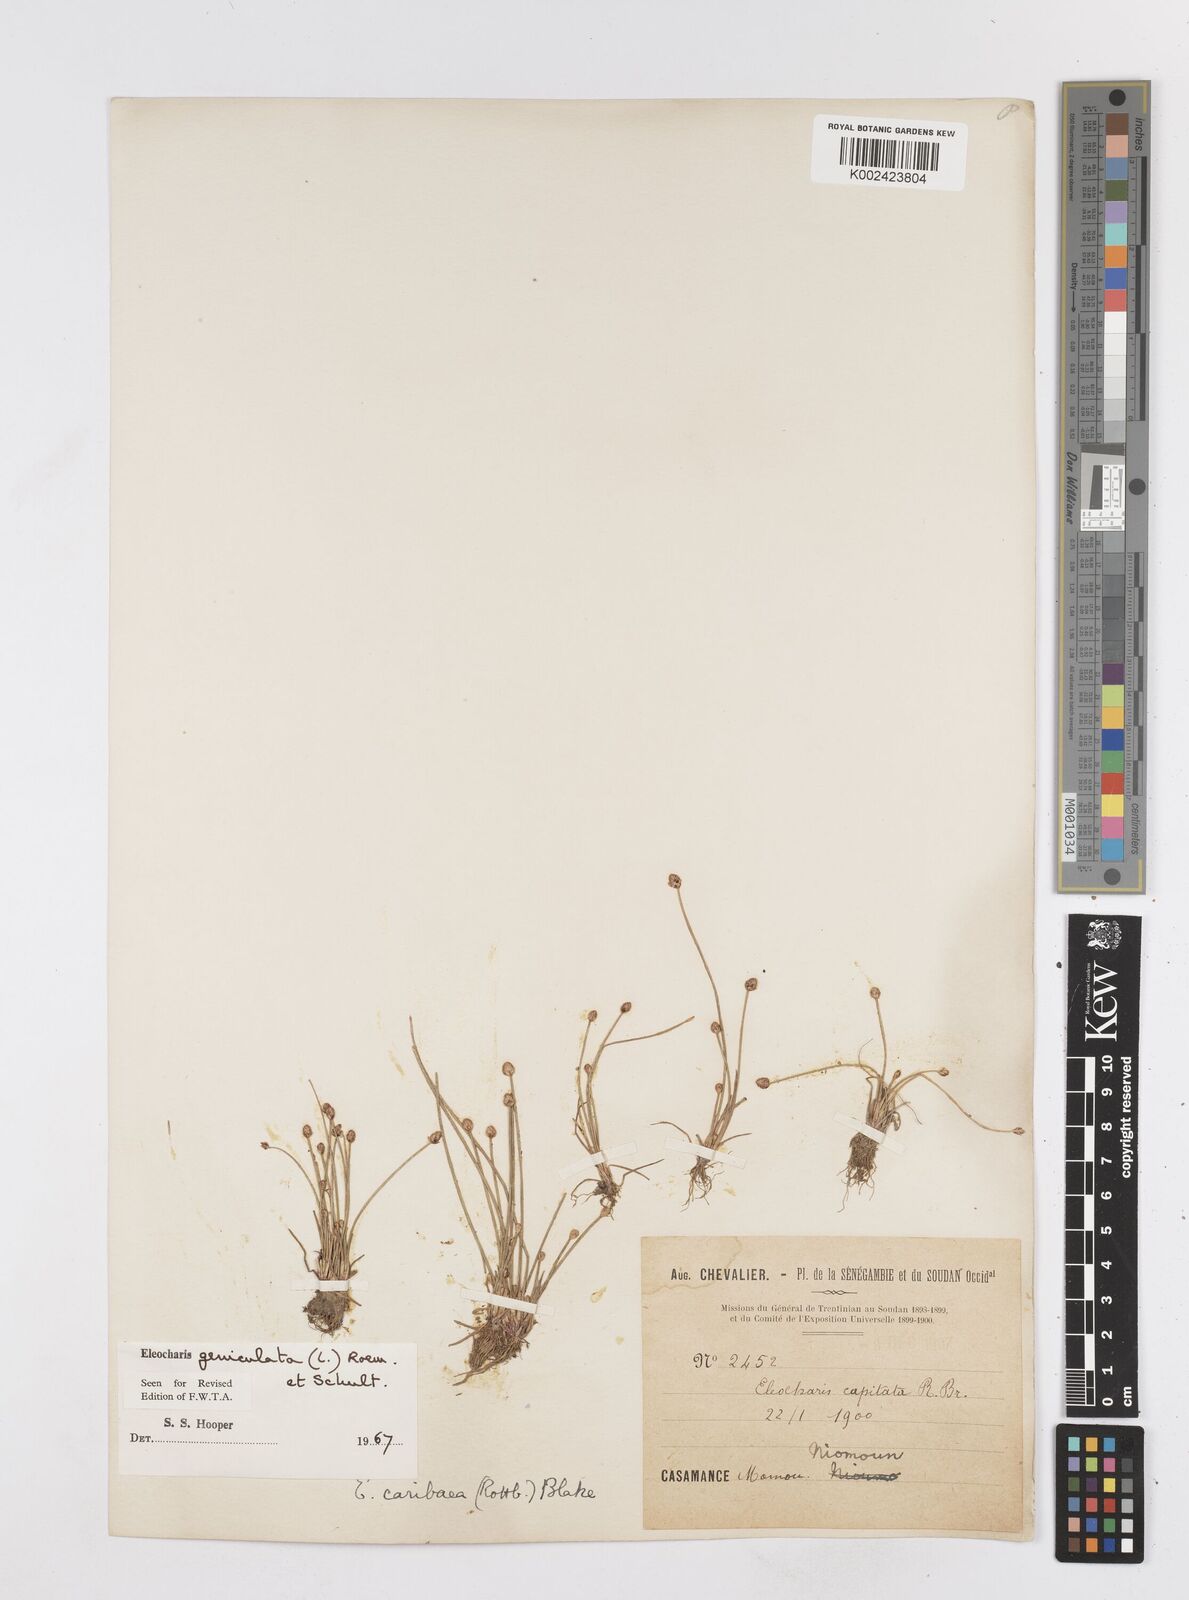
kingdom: Plantae
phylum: Tracheophyta
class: Liliopsida
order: Poales
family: Cyperaceae
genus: Eleocharis
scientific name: Eleocharis geniculata
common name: Canada spikesedge
